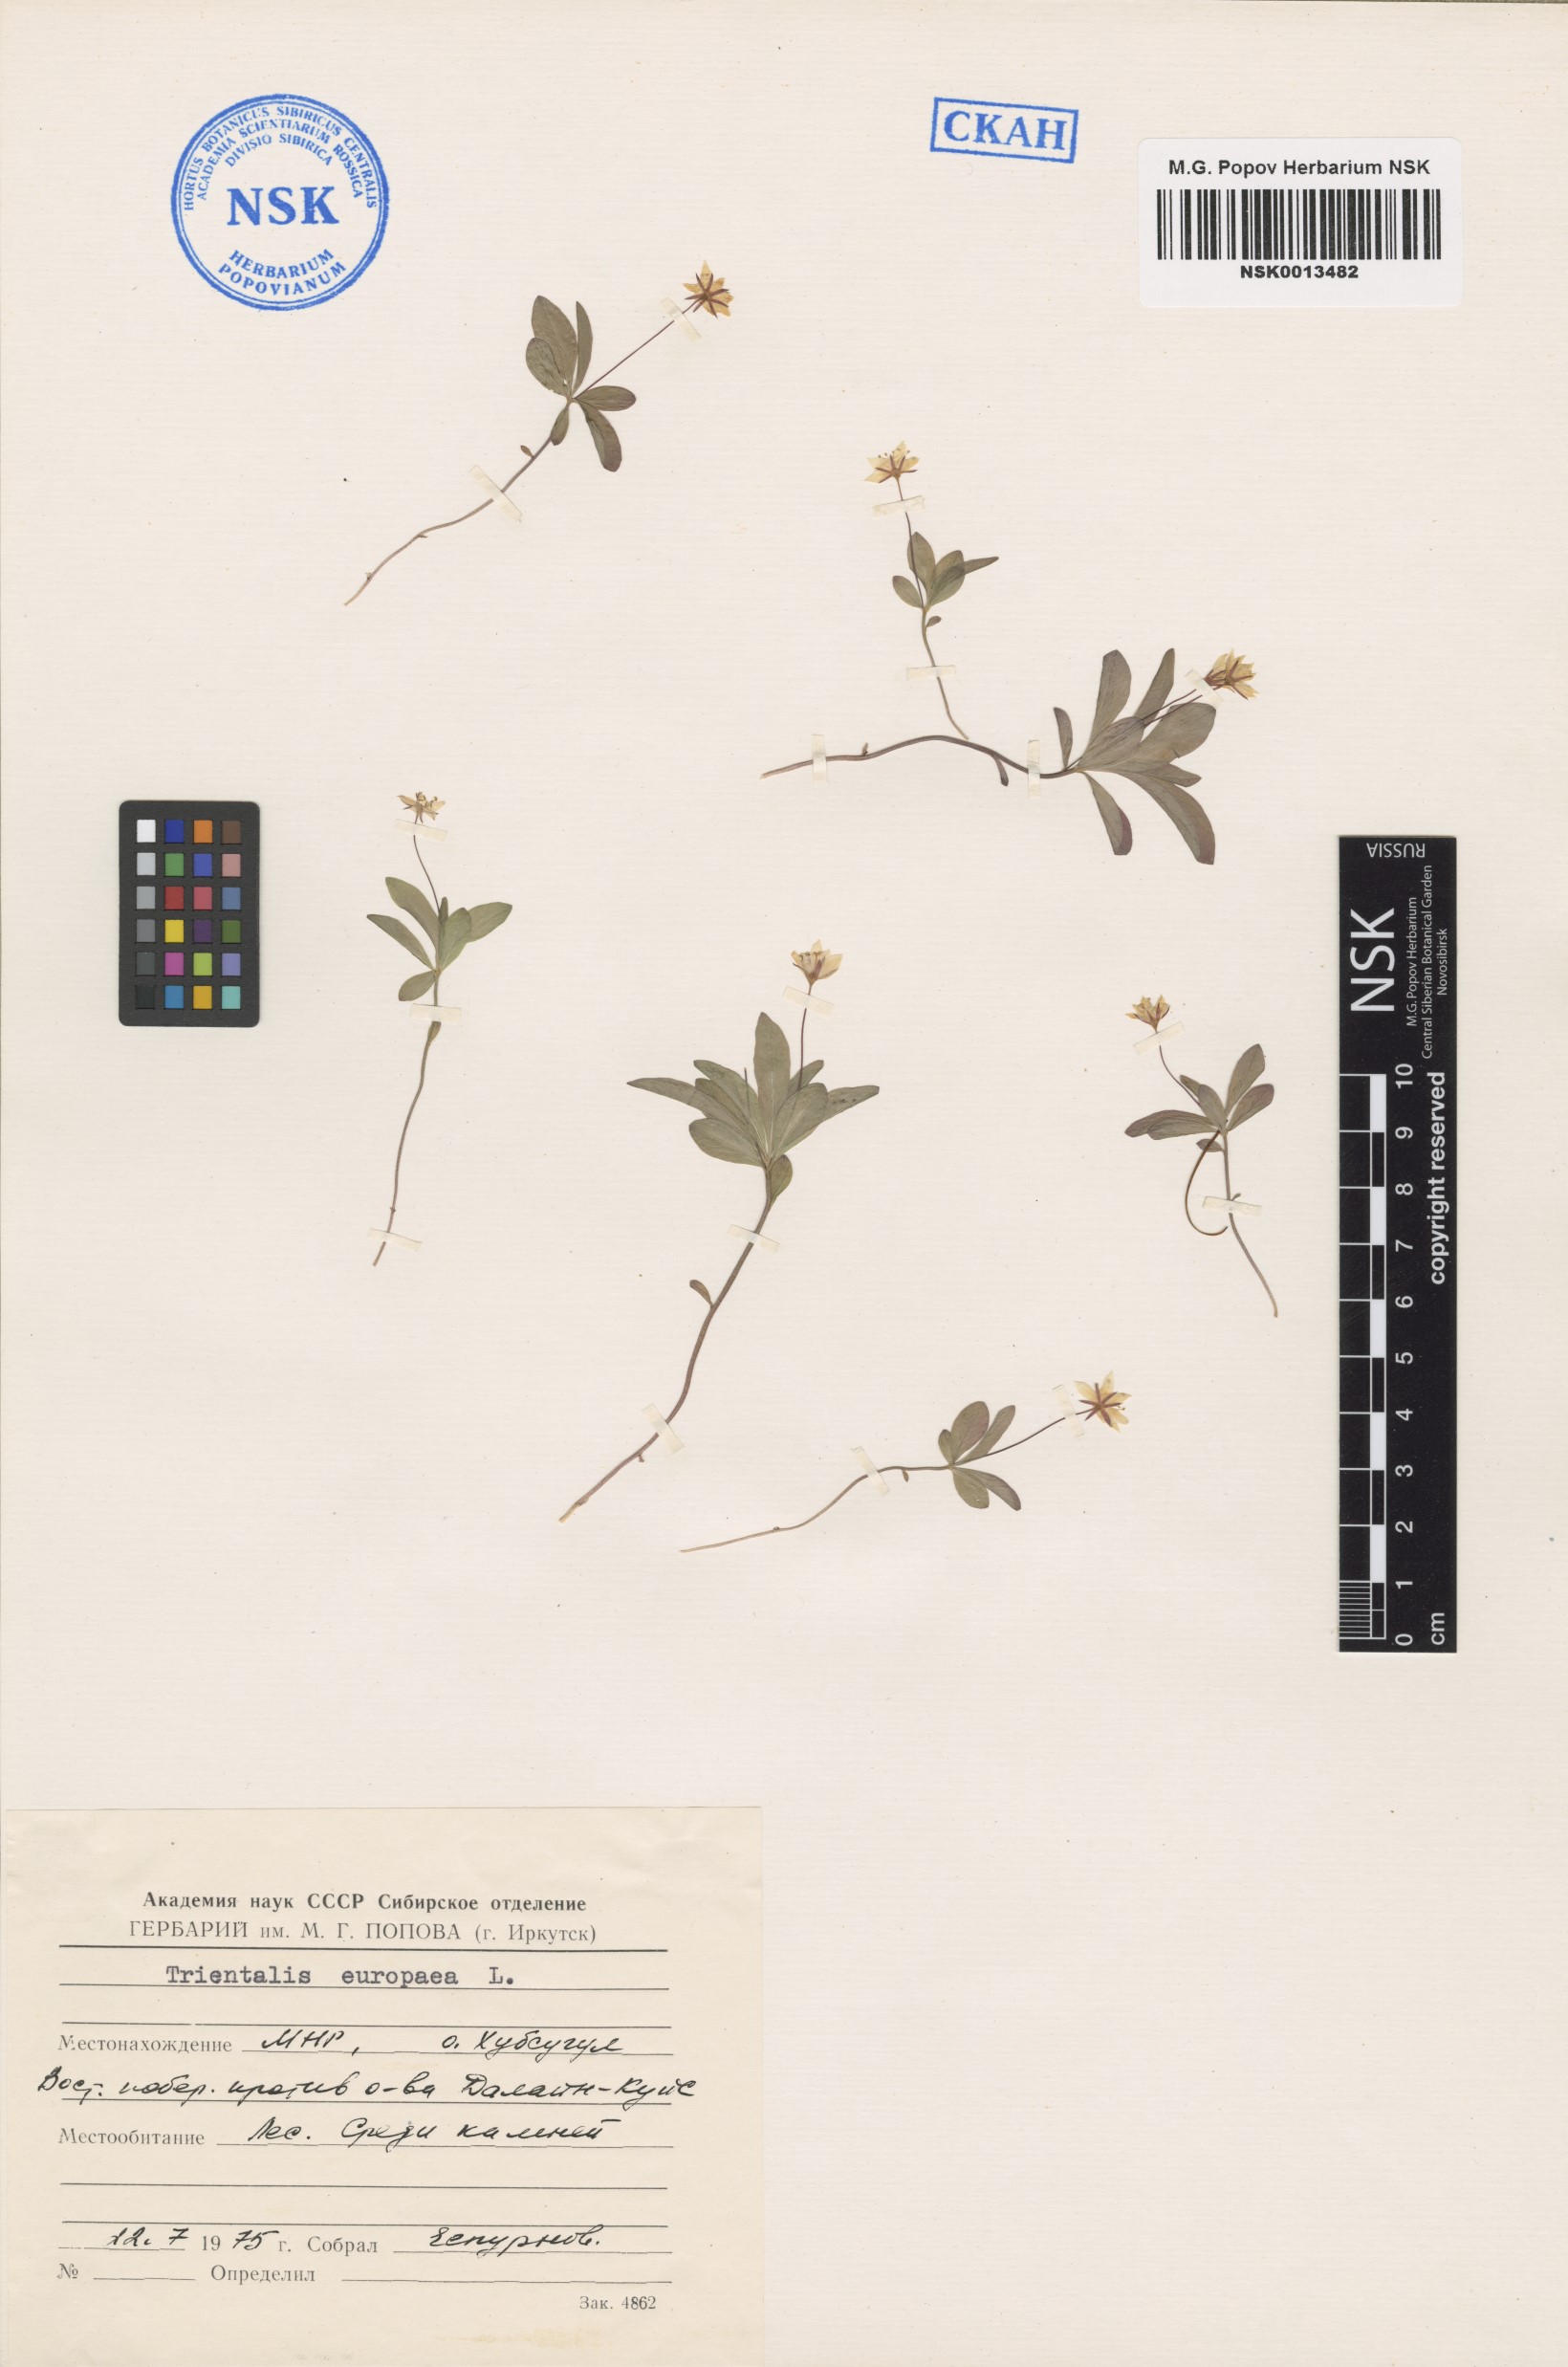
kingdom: Plantae
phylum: Tracheophyta
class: Magnoliopsida
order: Ericales
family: Primulaceae
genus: Lysimachia
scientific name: Lysimachia europaea
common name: Arctic starflower
